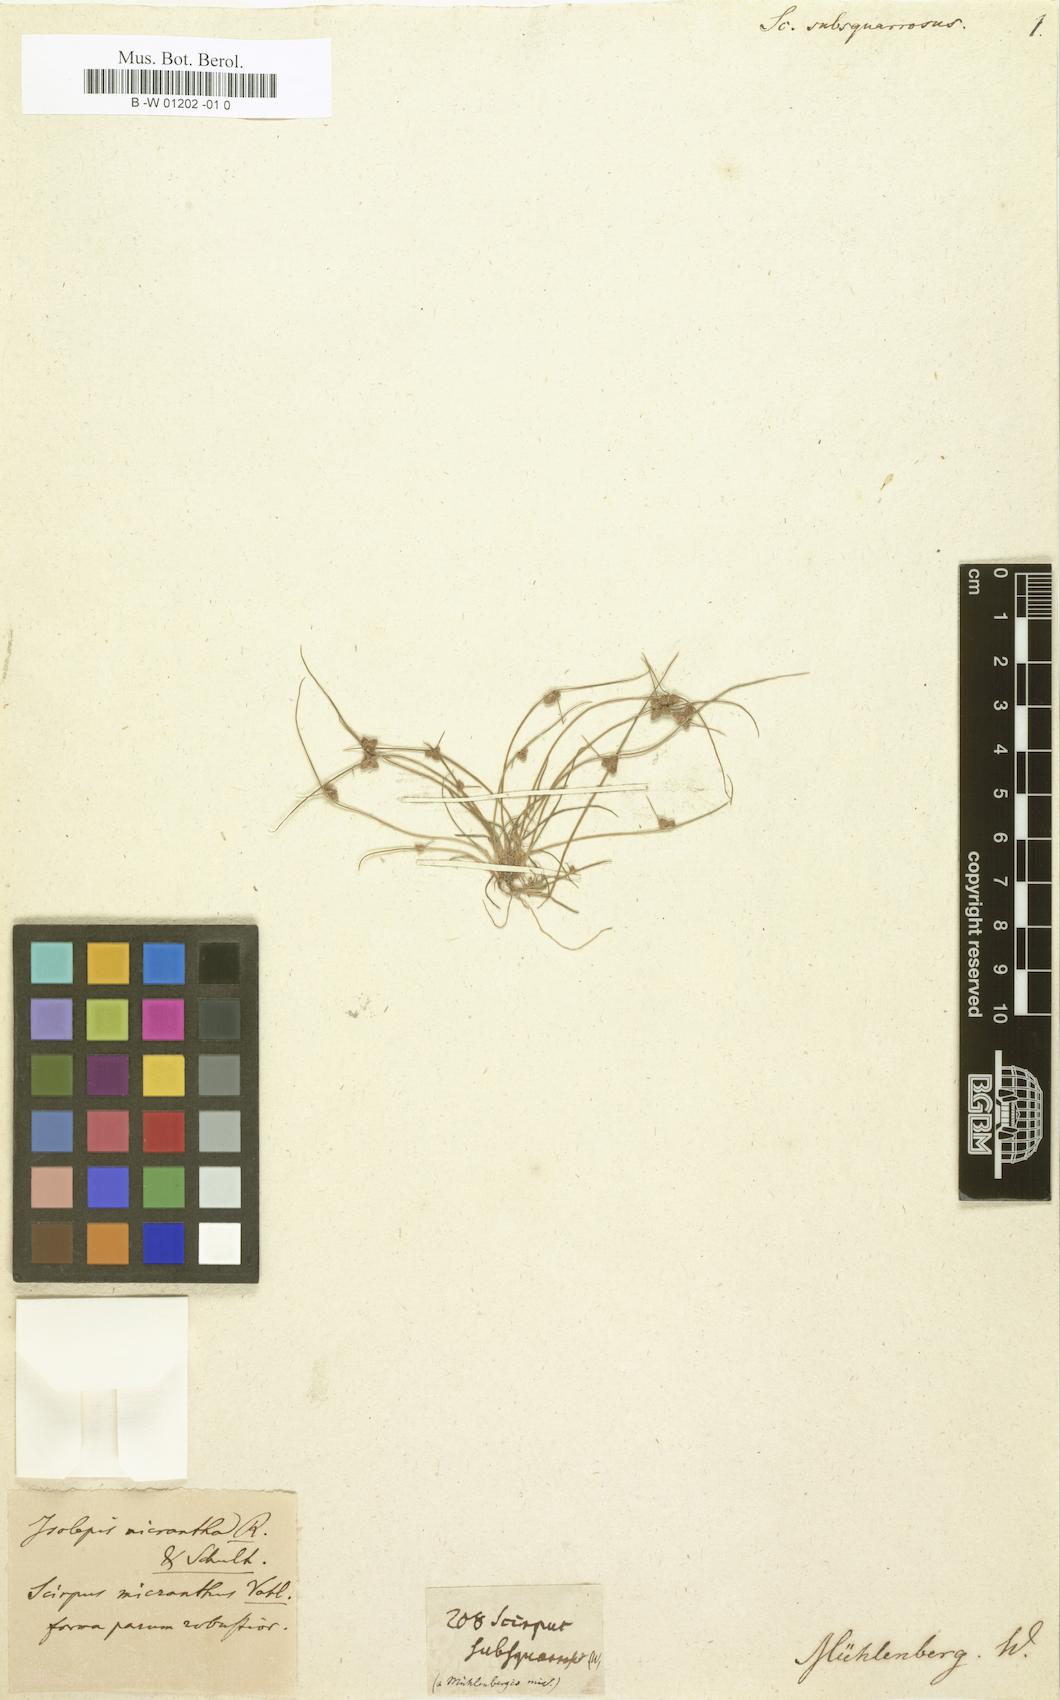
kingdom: Plantae
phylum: Tracheophyta
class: Liliopsida
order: Poales
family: Cyperaceae
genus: Cyperus
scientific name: Cyperus subsquarrosus
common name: Dwarf bulrush
